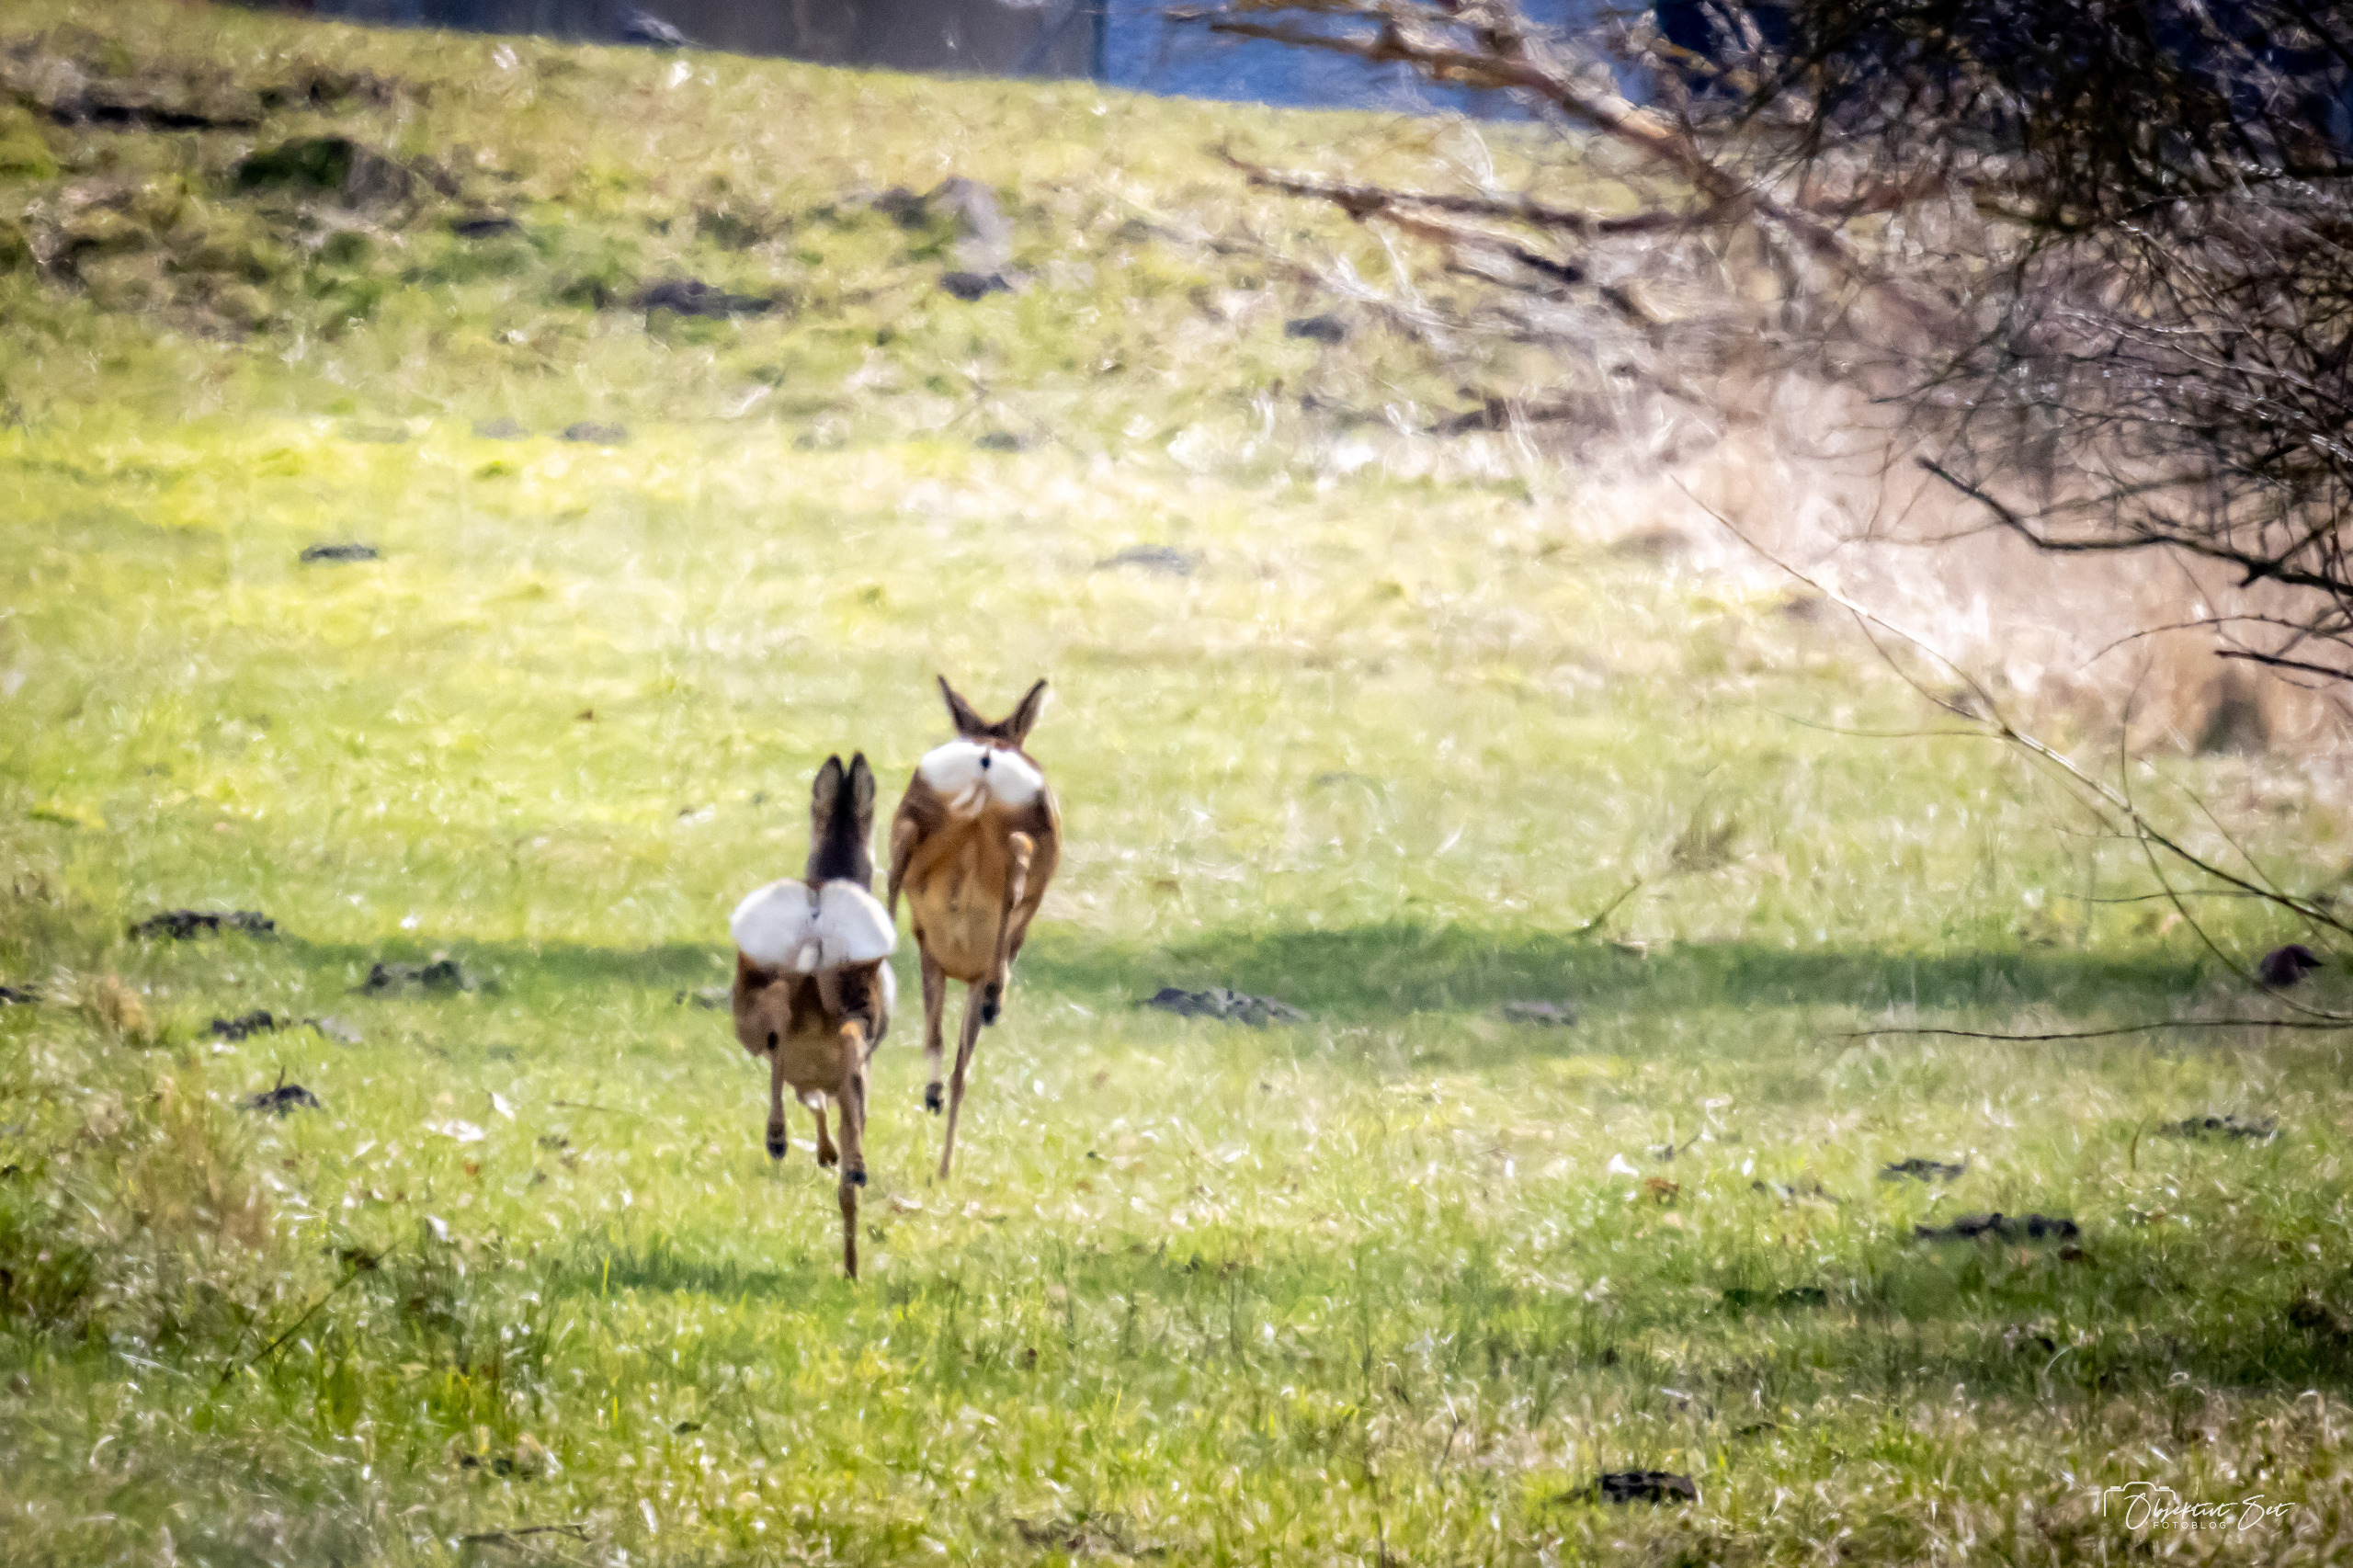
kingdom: Animalia
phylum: Chordata
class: Mammalia
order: Artiodactyla
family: Cervidae
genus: Capreolus
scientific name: Capreolus capreolus
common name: Rådyr
